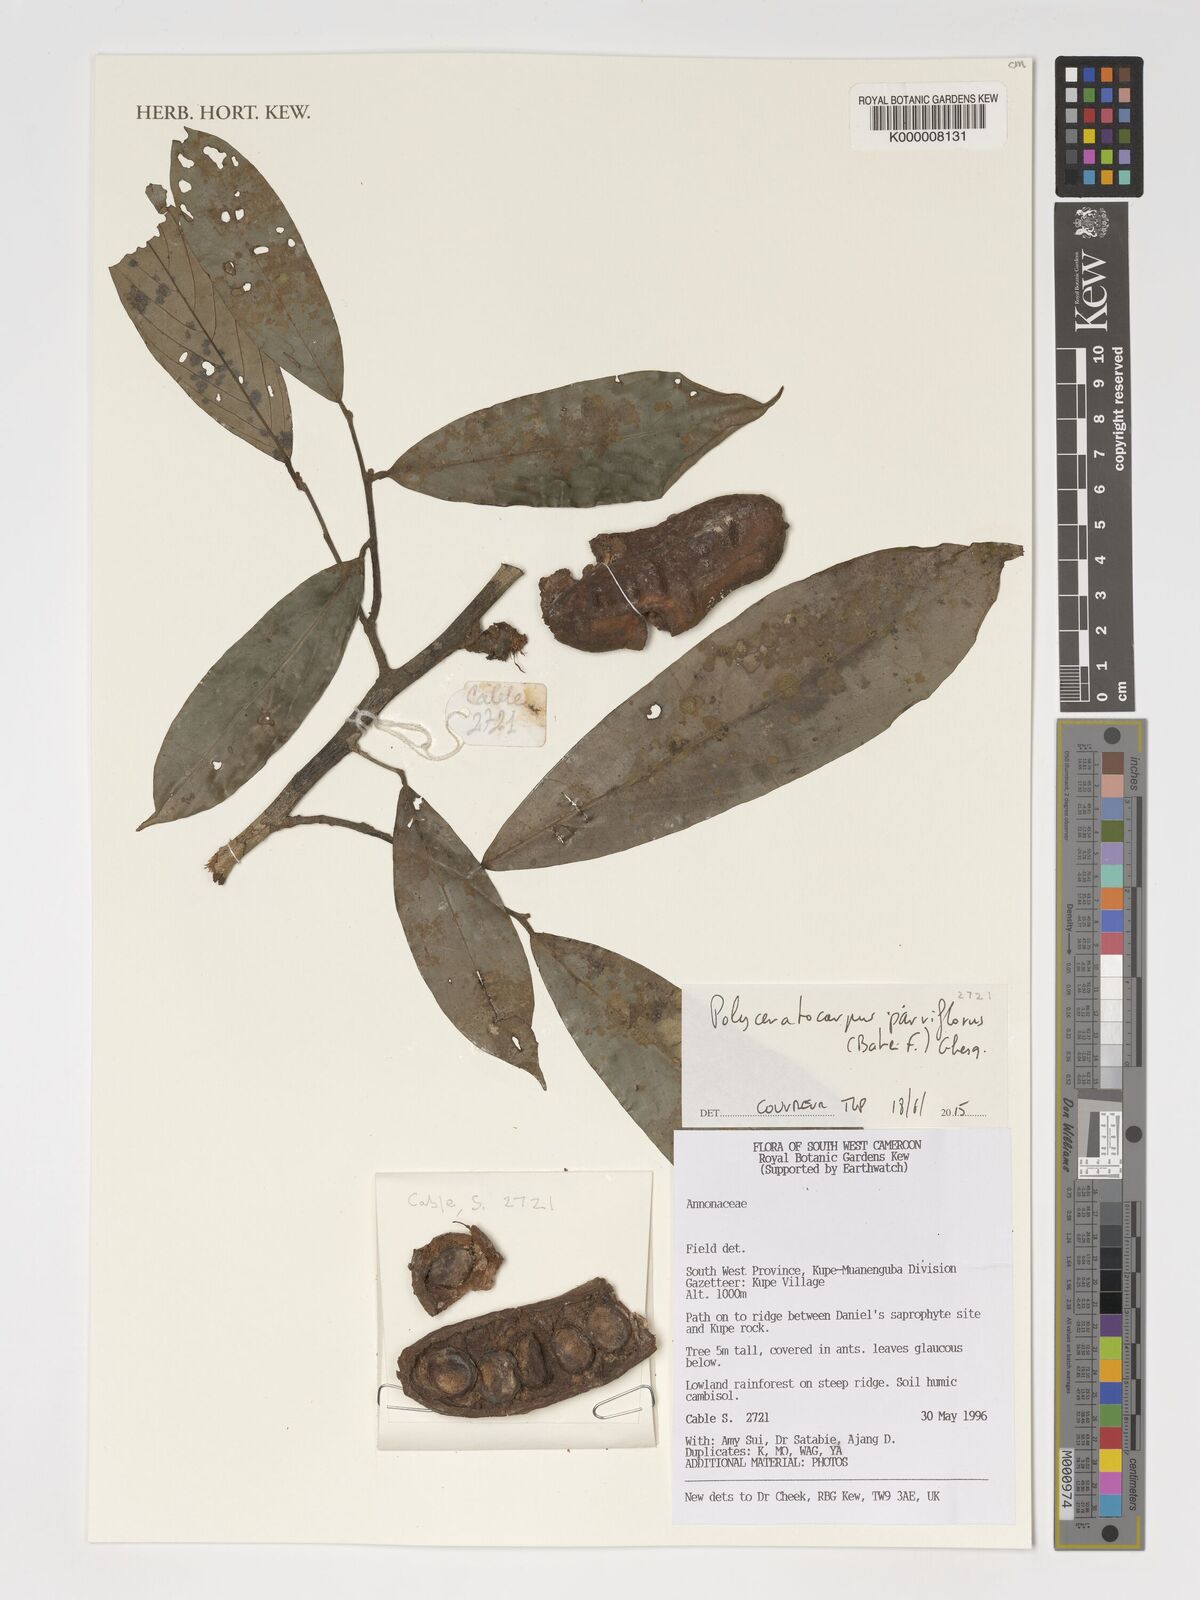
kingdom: Plantae
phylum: Tracheophyta
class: Magnoliopsida
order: Magnoliales
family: Annonaceae
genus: Polyceratocarpus
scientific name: Polyceratocarpus parviflorus
